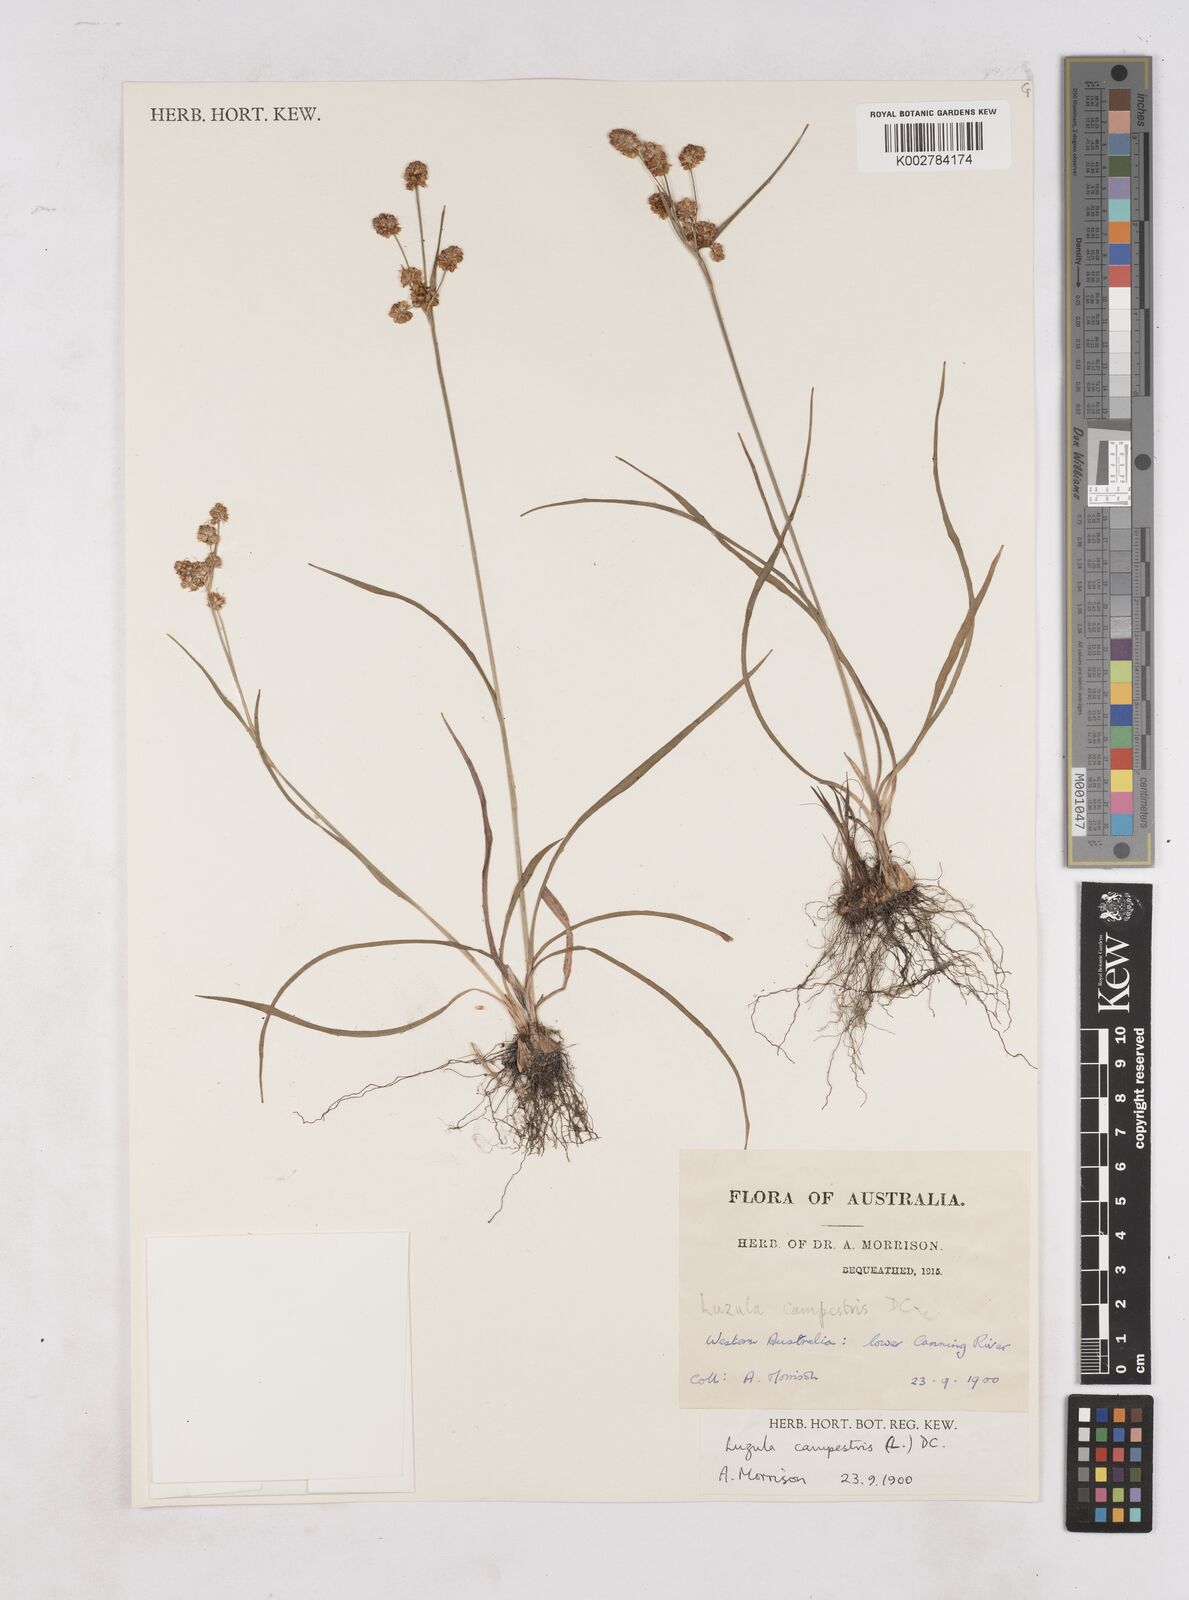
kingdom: Plantae
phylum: Tracheophyta
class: Liliopsida
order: Poales
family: Juncaceae
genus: Luzula
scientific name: Luzula campestris
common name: Field wood-rush
